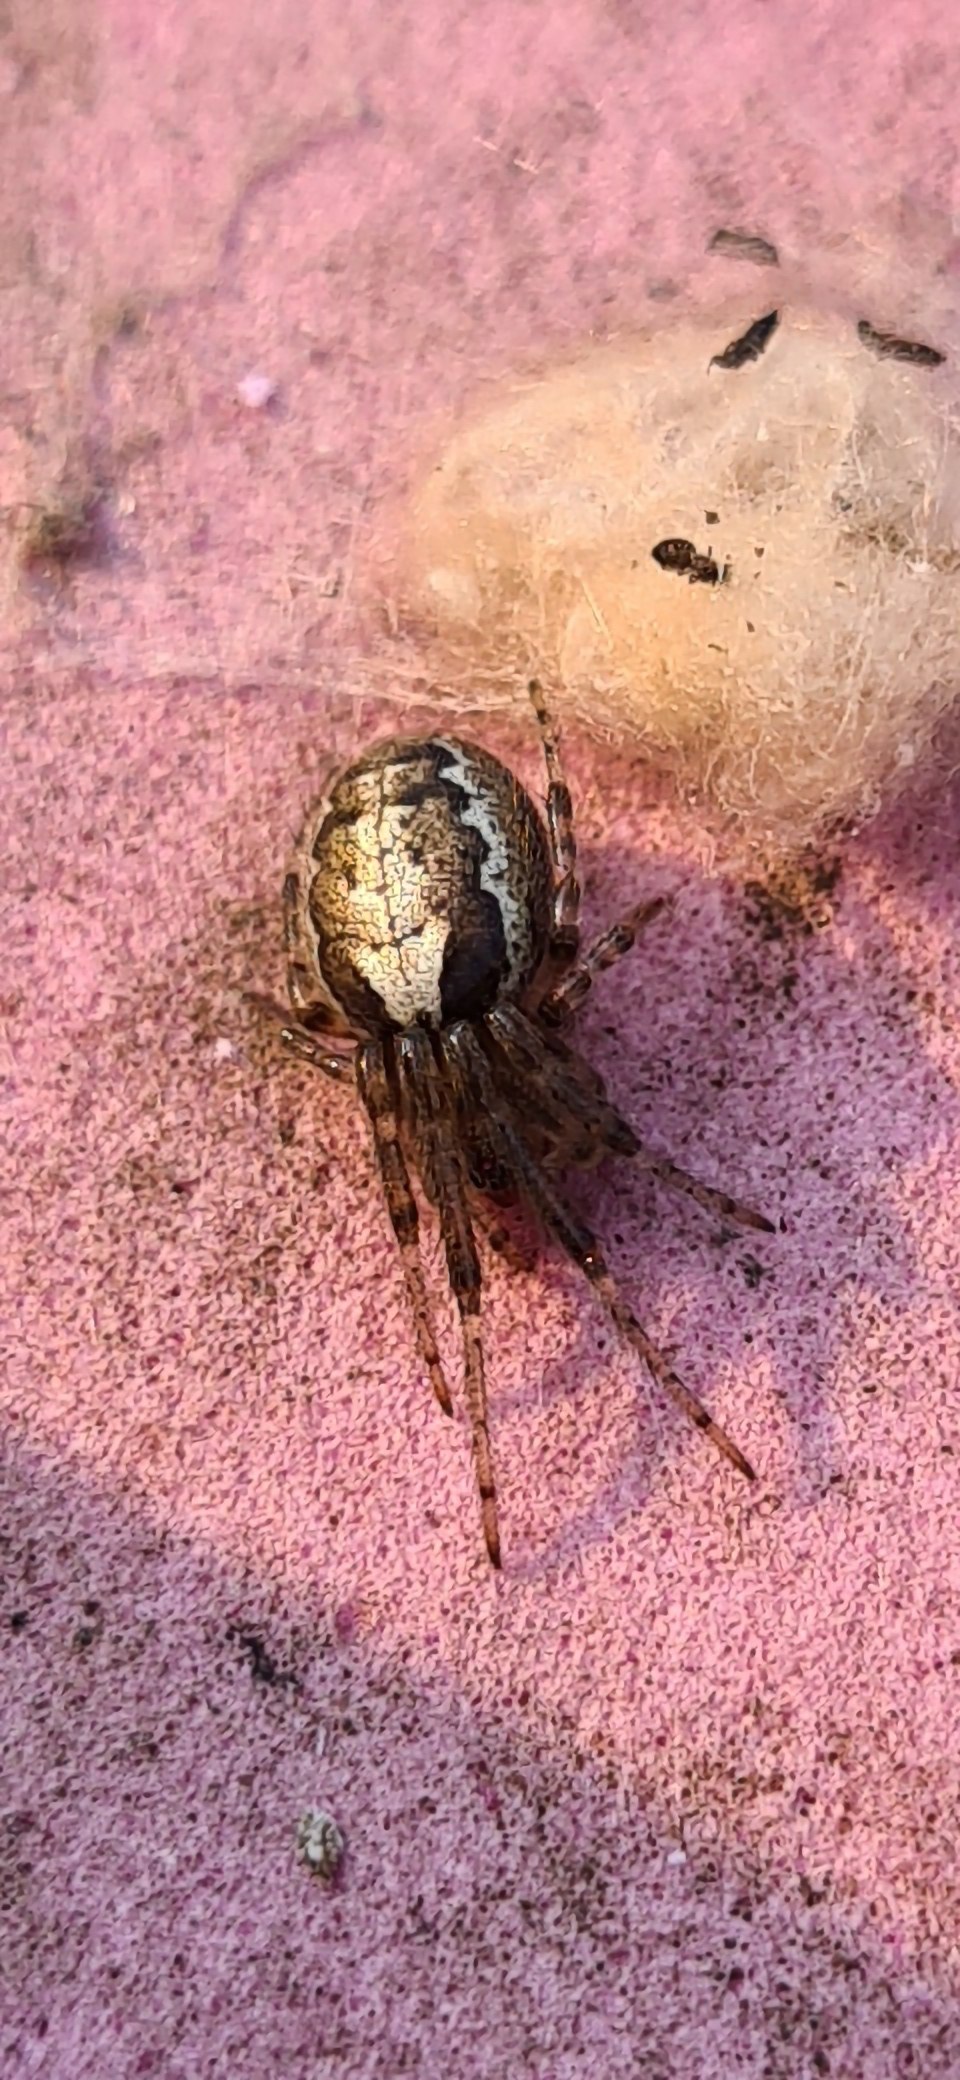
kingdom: Animalia
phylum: Arthropoda
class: Arachnida
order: Araneae
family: Araneidae
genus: Zygiella
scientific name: Zygiella x-notata
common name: Grå sektoredderkop
